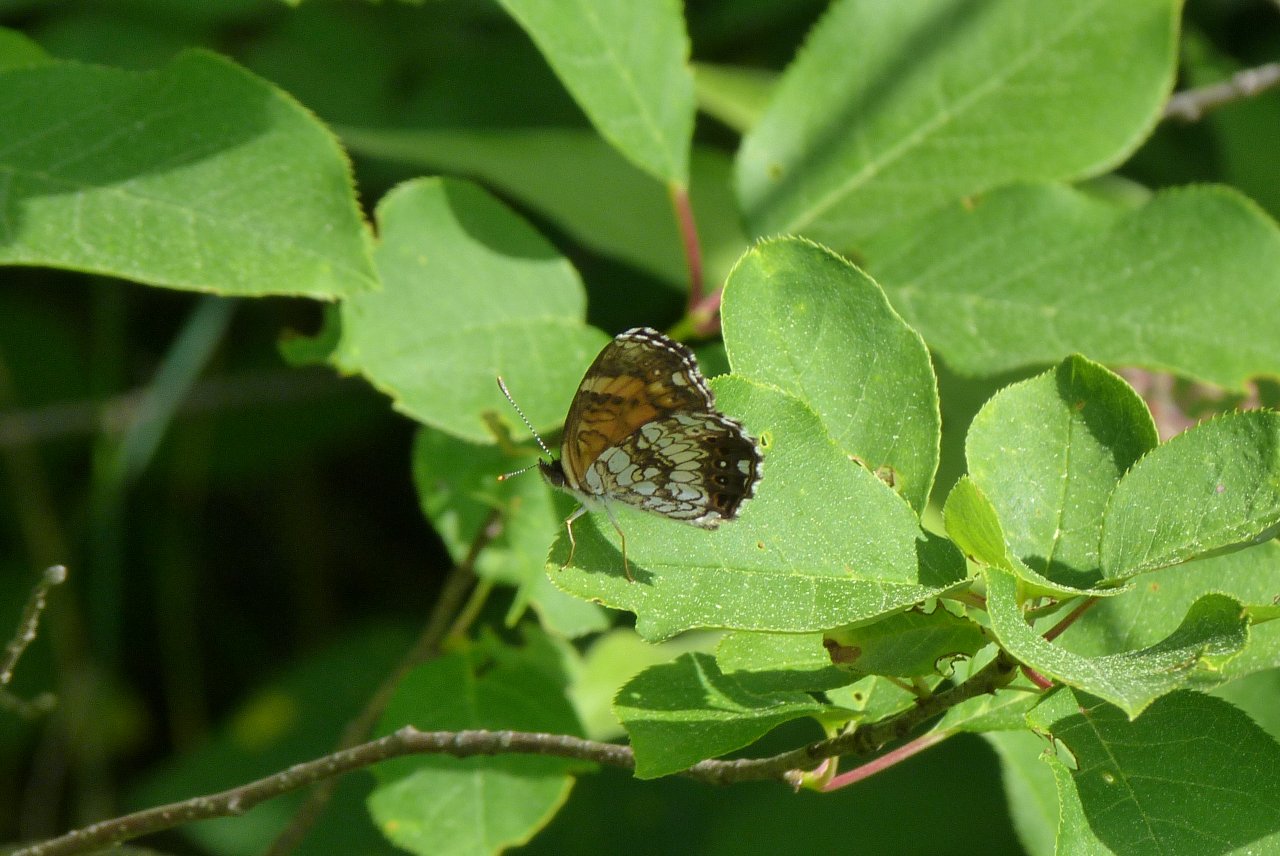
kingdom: Animalia
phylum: Arthropoda
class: Insecta
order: Lepidoptera
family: Nymphalidae
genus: Chlosyne
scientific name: Chlosyne nycteis
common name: Silvery Checkerspot
